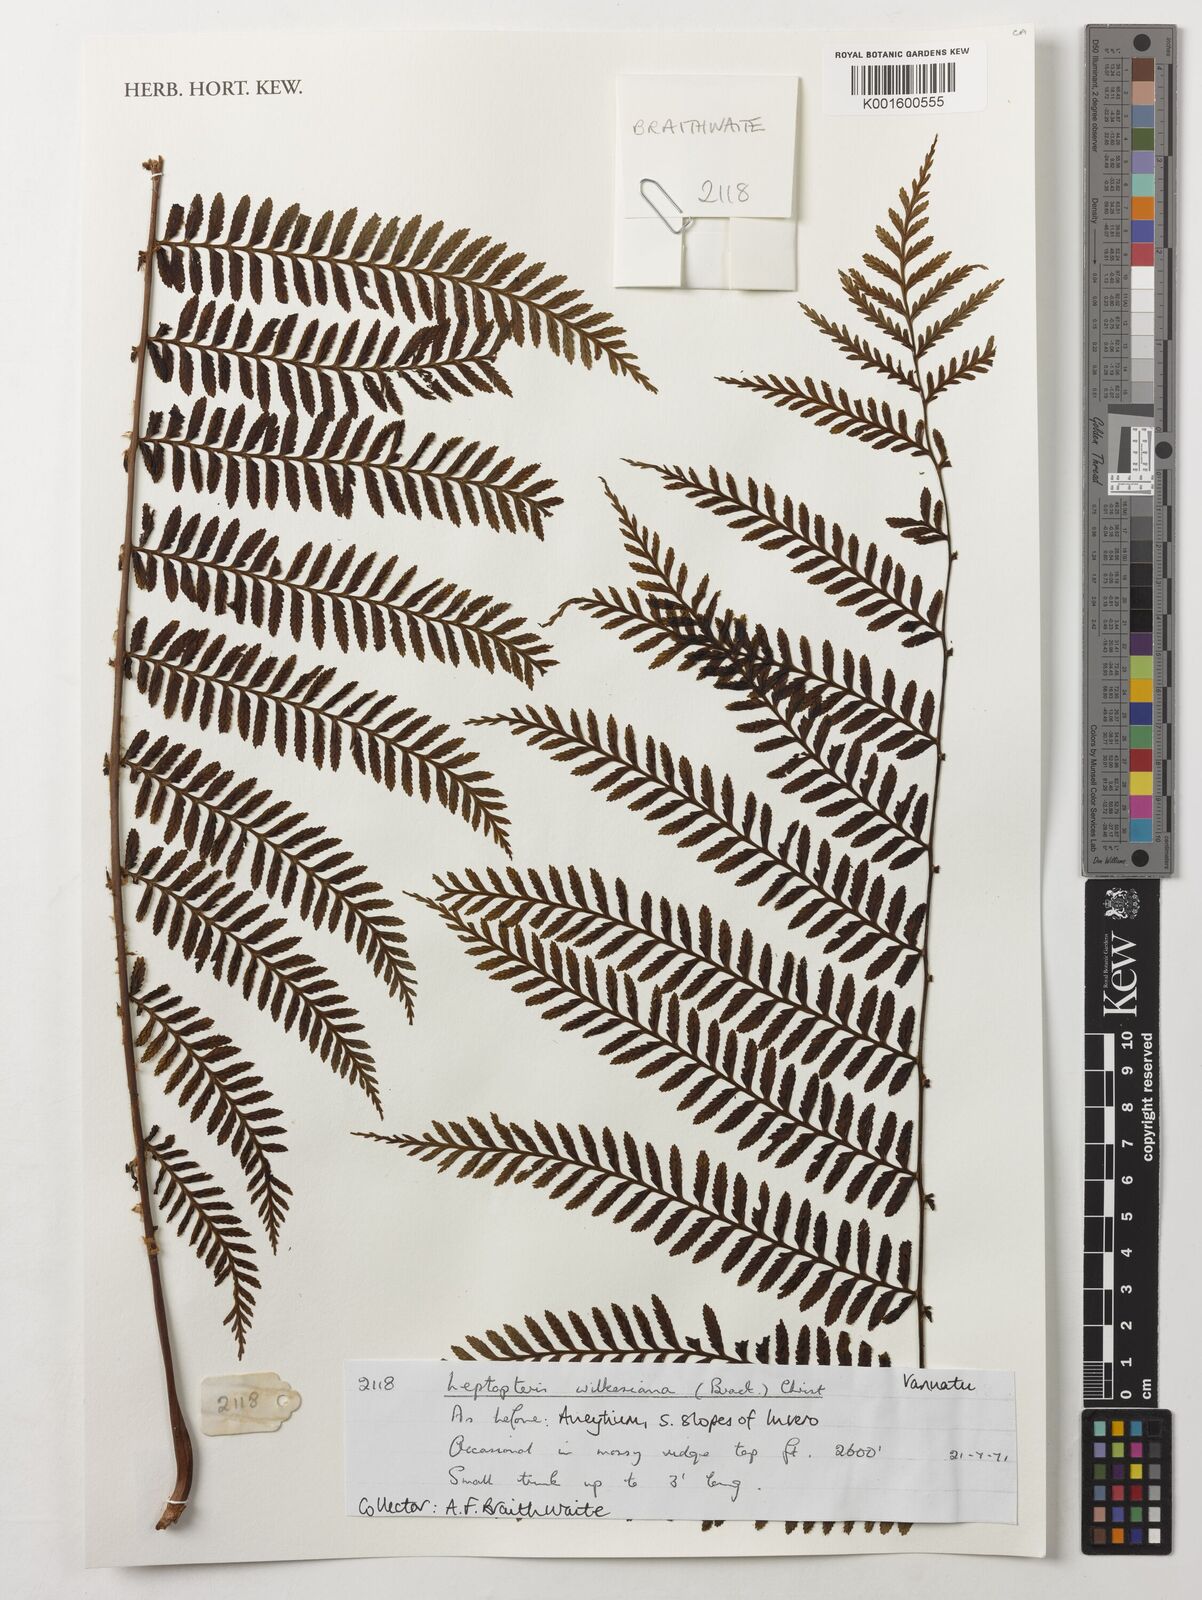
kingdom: Plantae
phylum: Tracheophyta
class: Polypodiopsida
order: Osmundales
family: Osmundaceae
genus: Leptopteris
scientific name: Leptopteris wilkesiana
